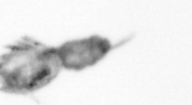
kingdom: Animalia
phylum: Arthropoda
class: Copepoda
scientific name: Copepoda
